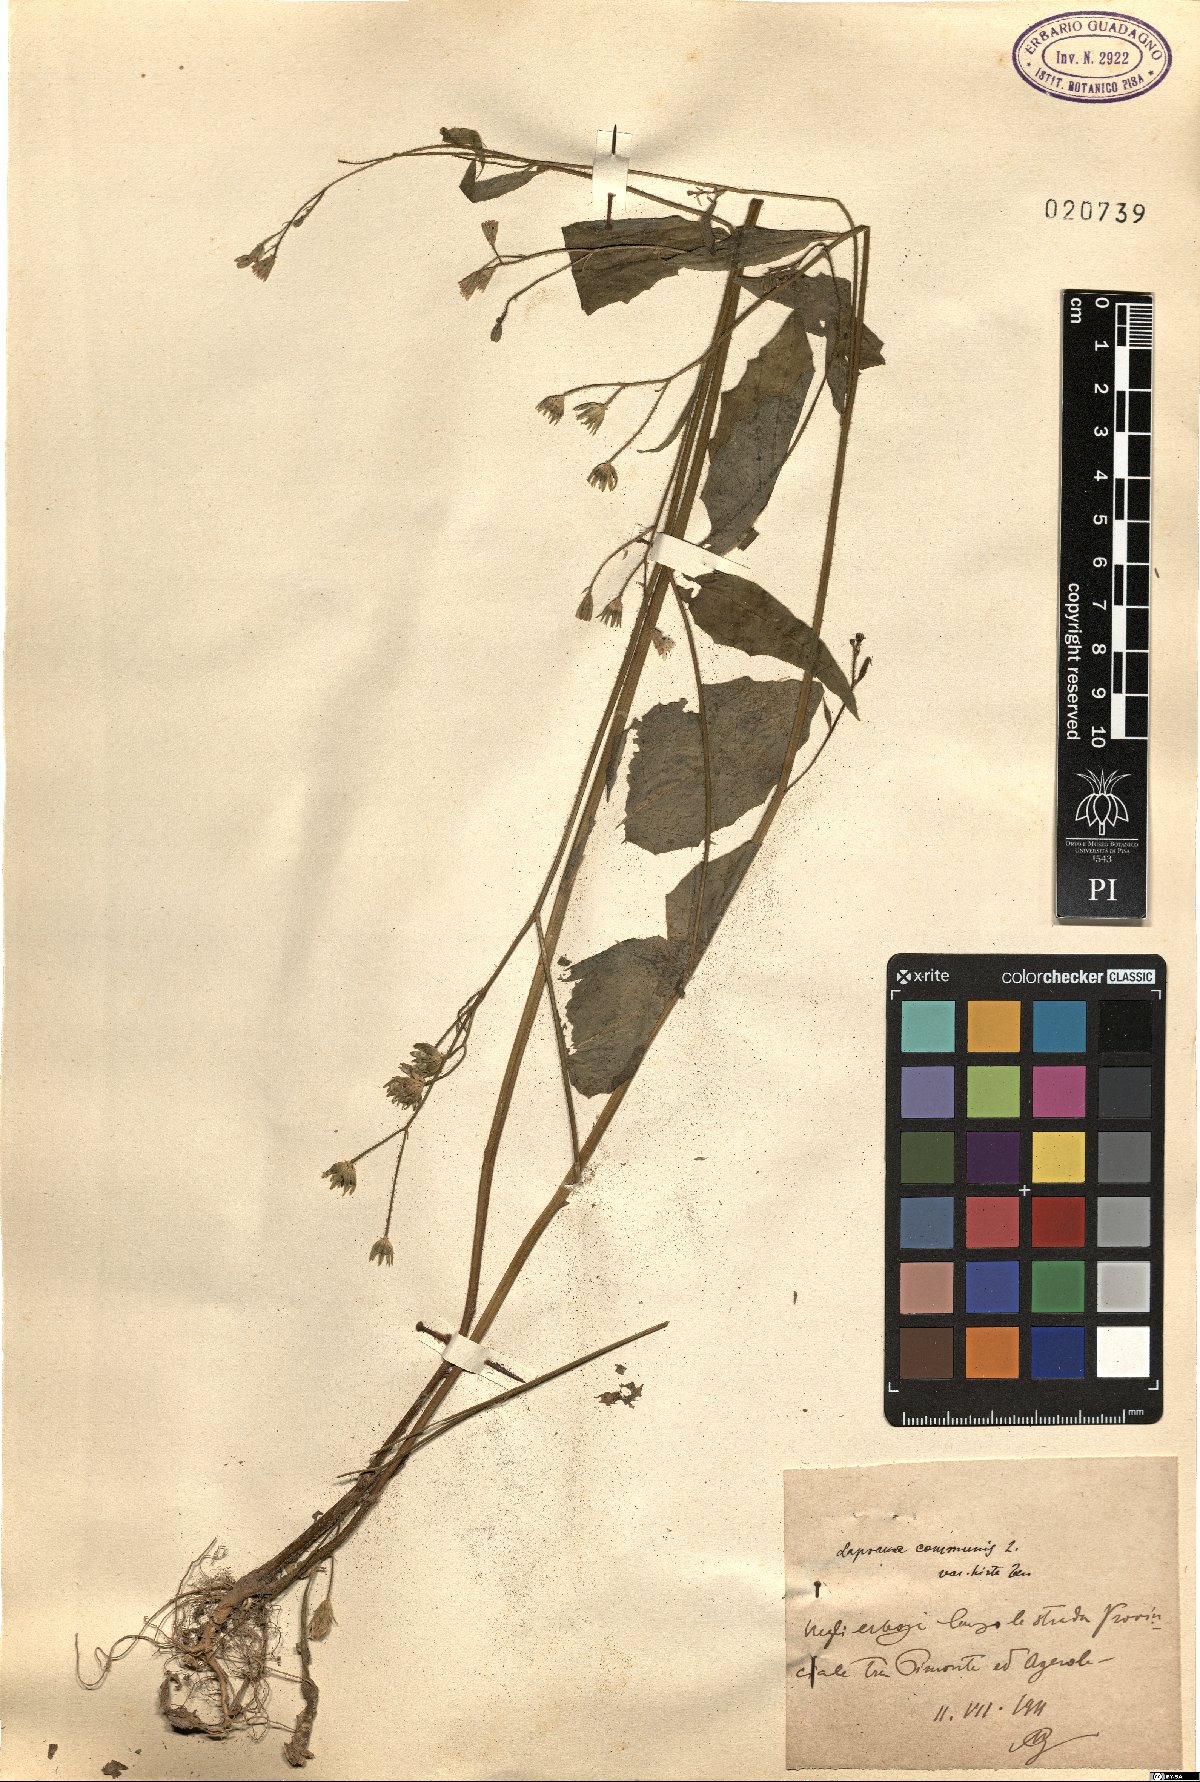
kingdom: Plantae
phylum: Tracheophyta
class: Magnoliopsida
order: Asterales
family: Asteraceae
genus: Lapsana
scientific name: Lapsana communis
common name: Nipplewort
